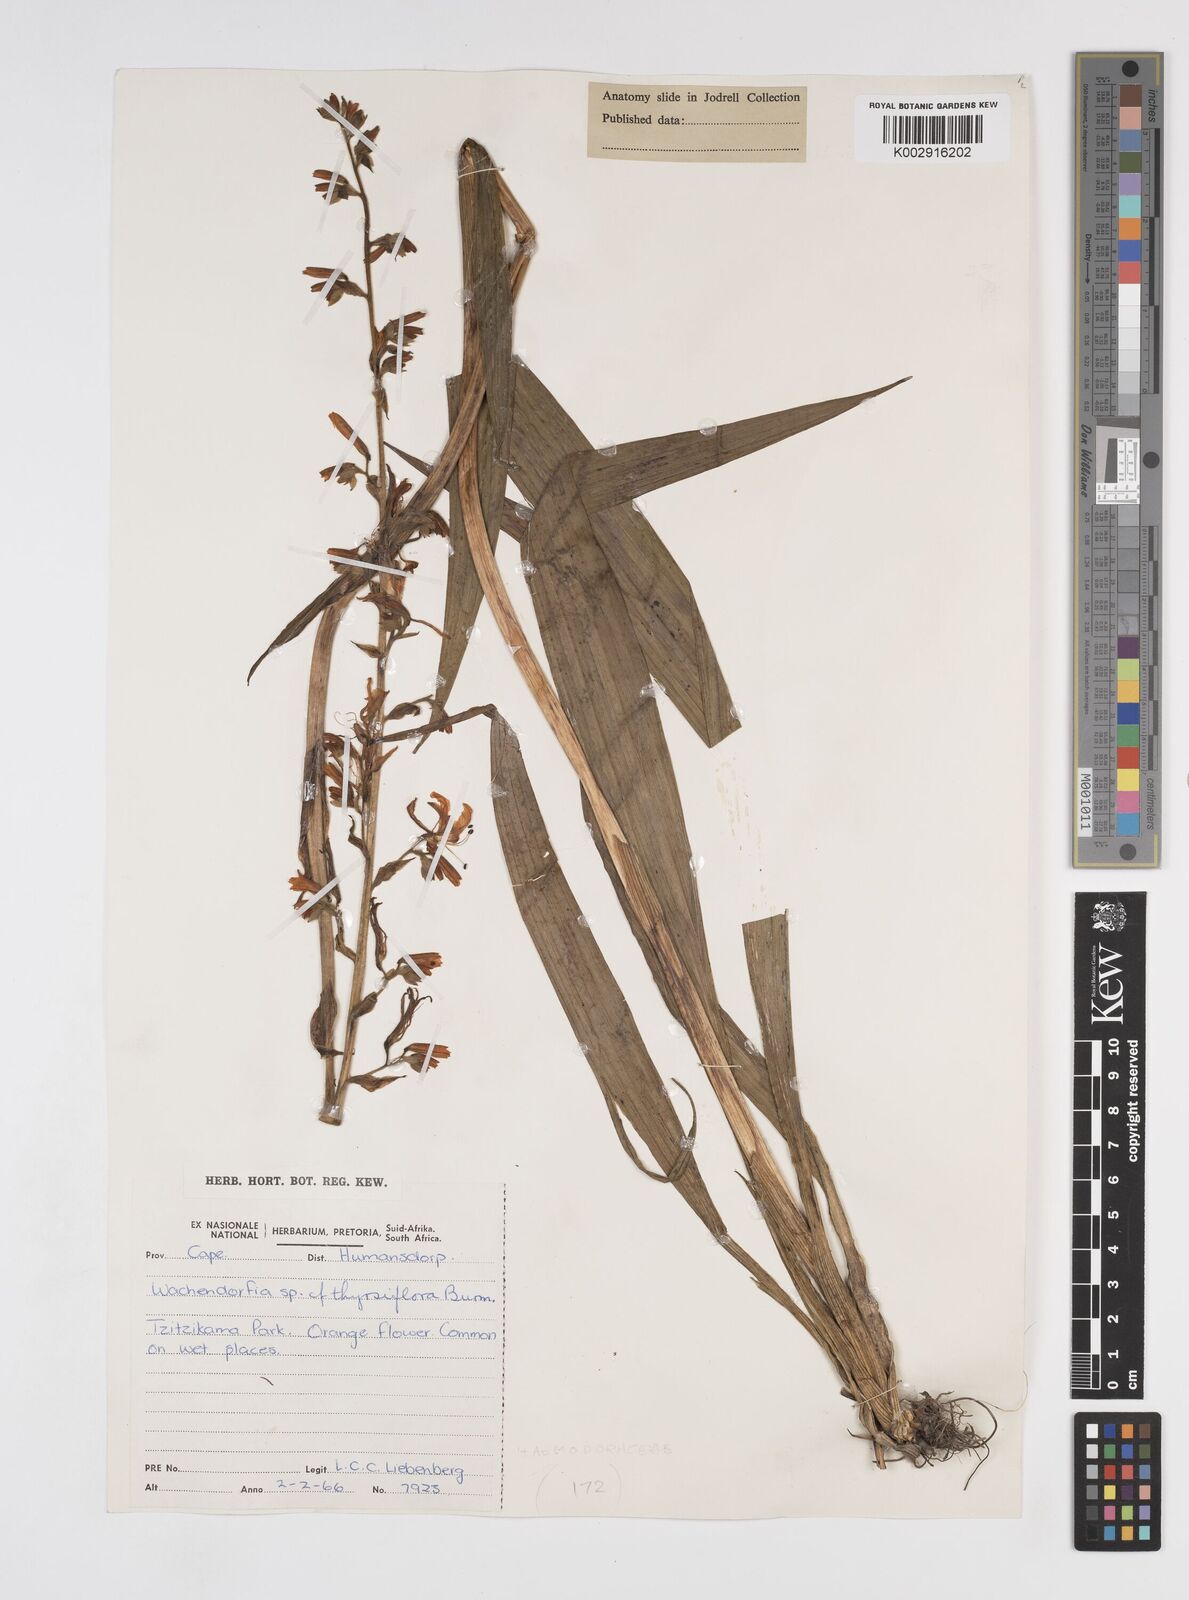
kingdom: Plantae
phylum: Tracheophyta
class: Liliopsida
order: Commelinales
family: Haemodoraceae
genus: Wachendorfia
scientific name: Wachendorfia thyrsiflora
